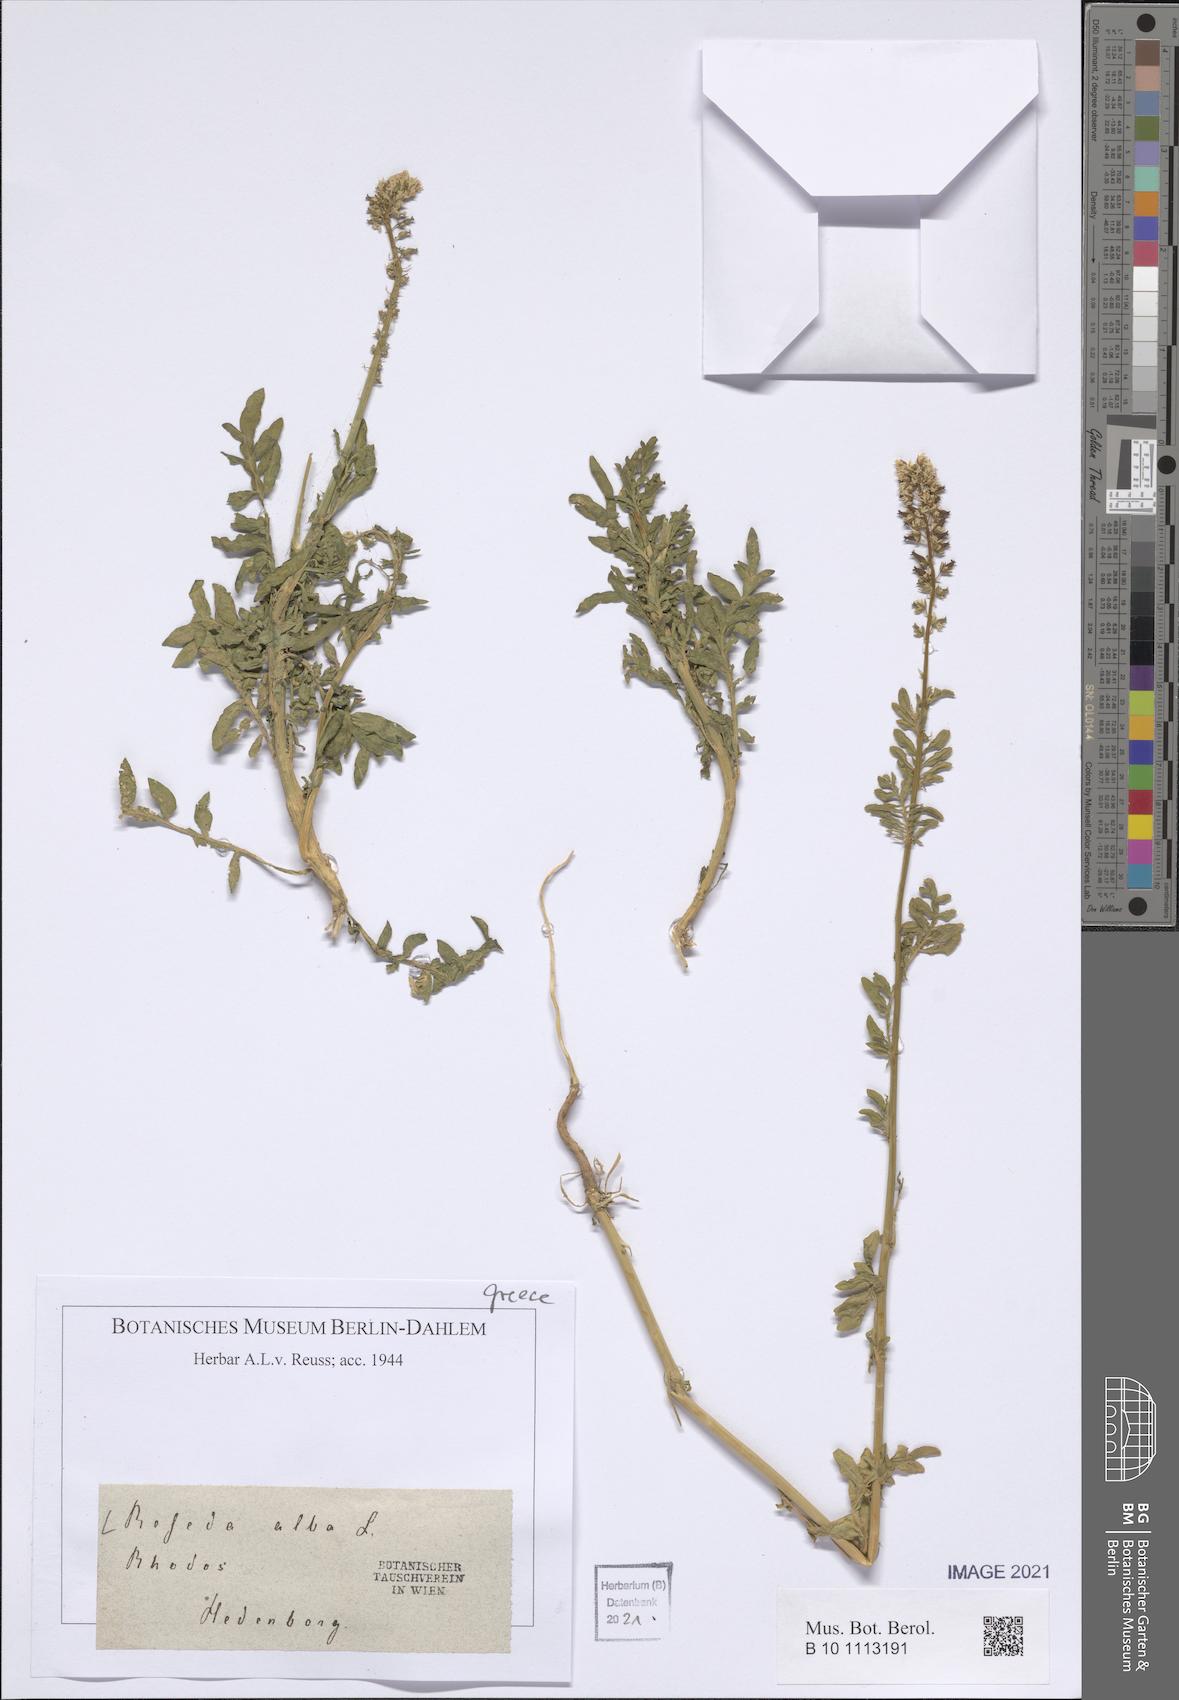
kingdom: Plantae
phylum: Tracheophyta
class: Magnoliopsida
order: Brassicales
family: Resedaceae
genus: Reseda
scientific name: Reseda alba
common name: White mignonette
